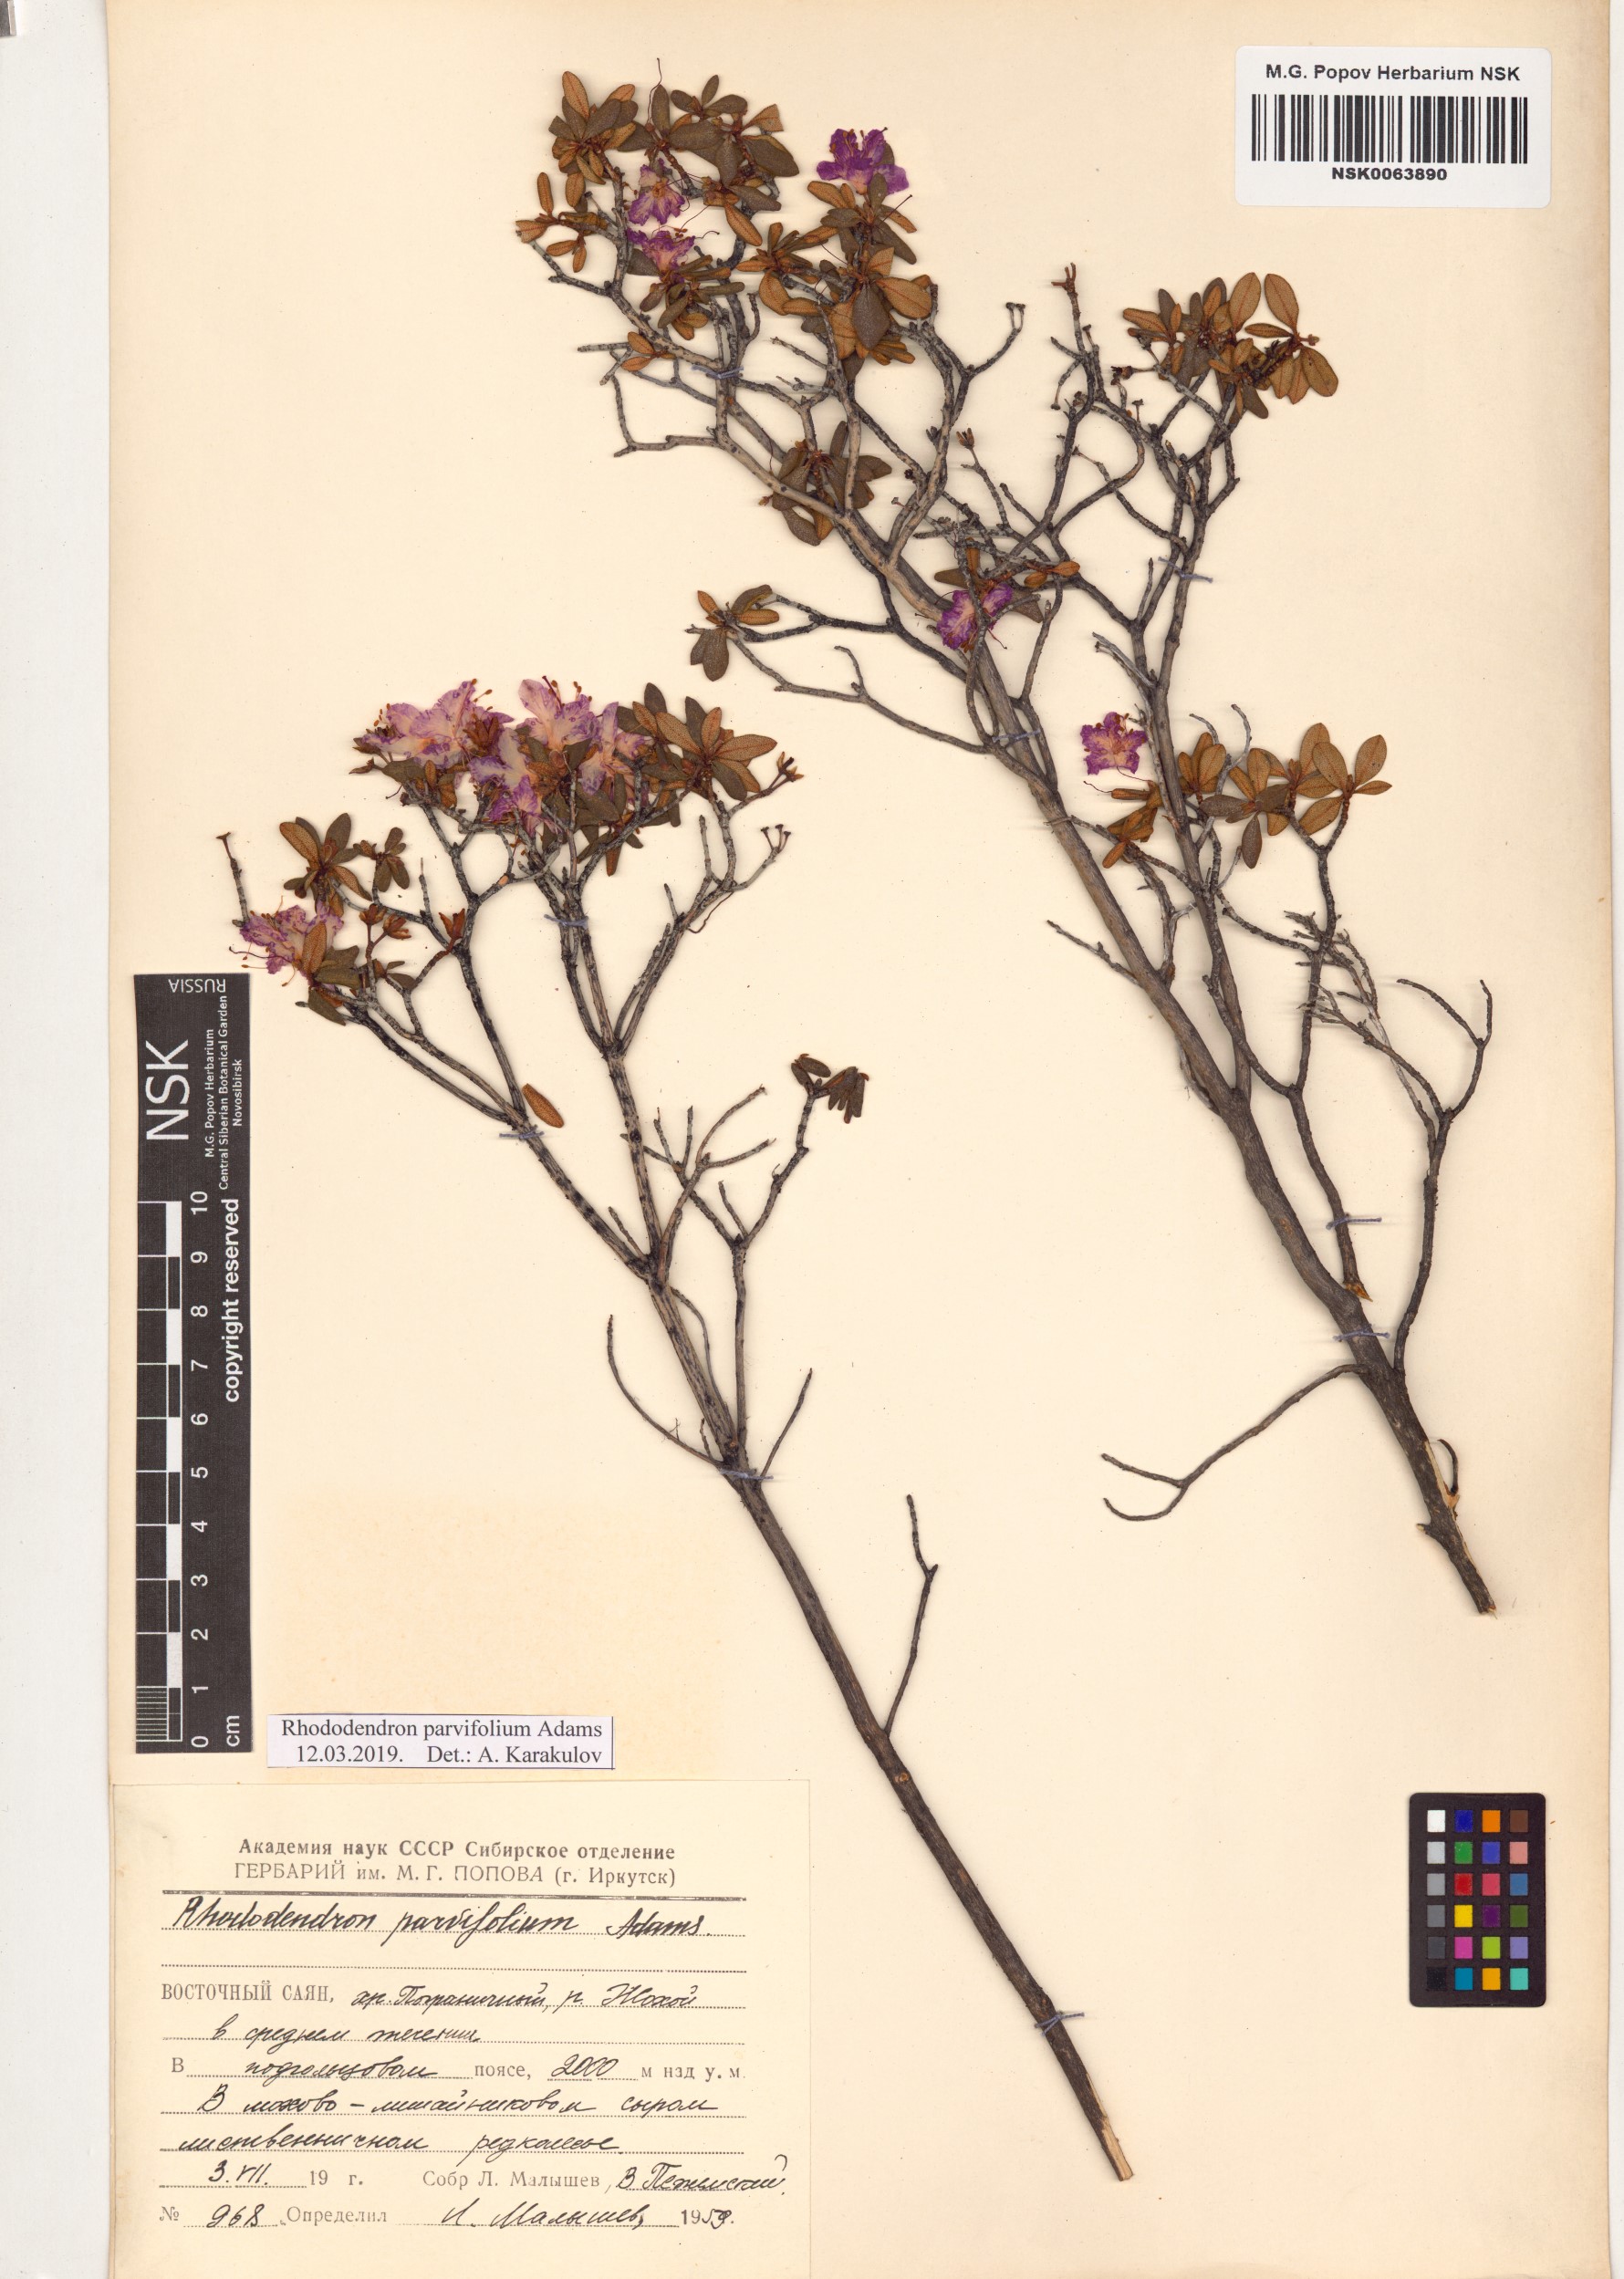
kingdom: Plantae
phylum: Tracheophyta
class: Magnoliopsida
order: Ericales
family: Ericaceae
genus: Rhododendron
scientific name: Rhododendron parvifolium
